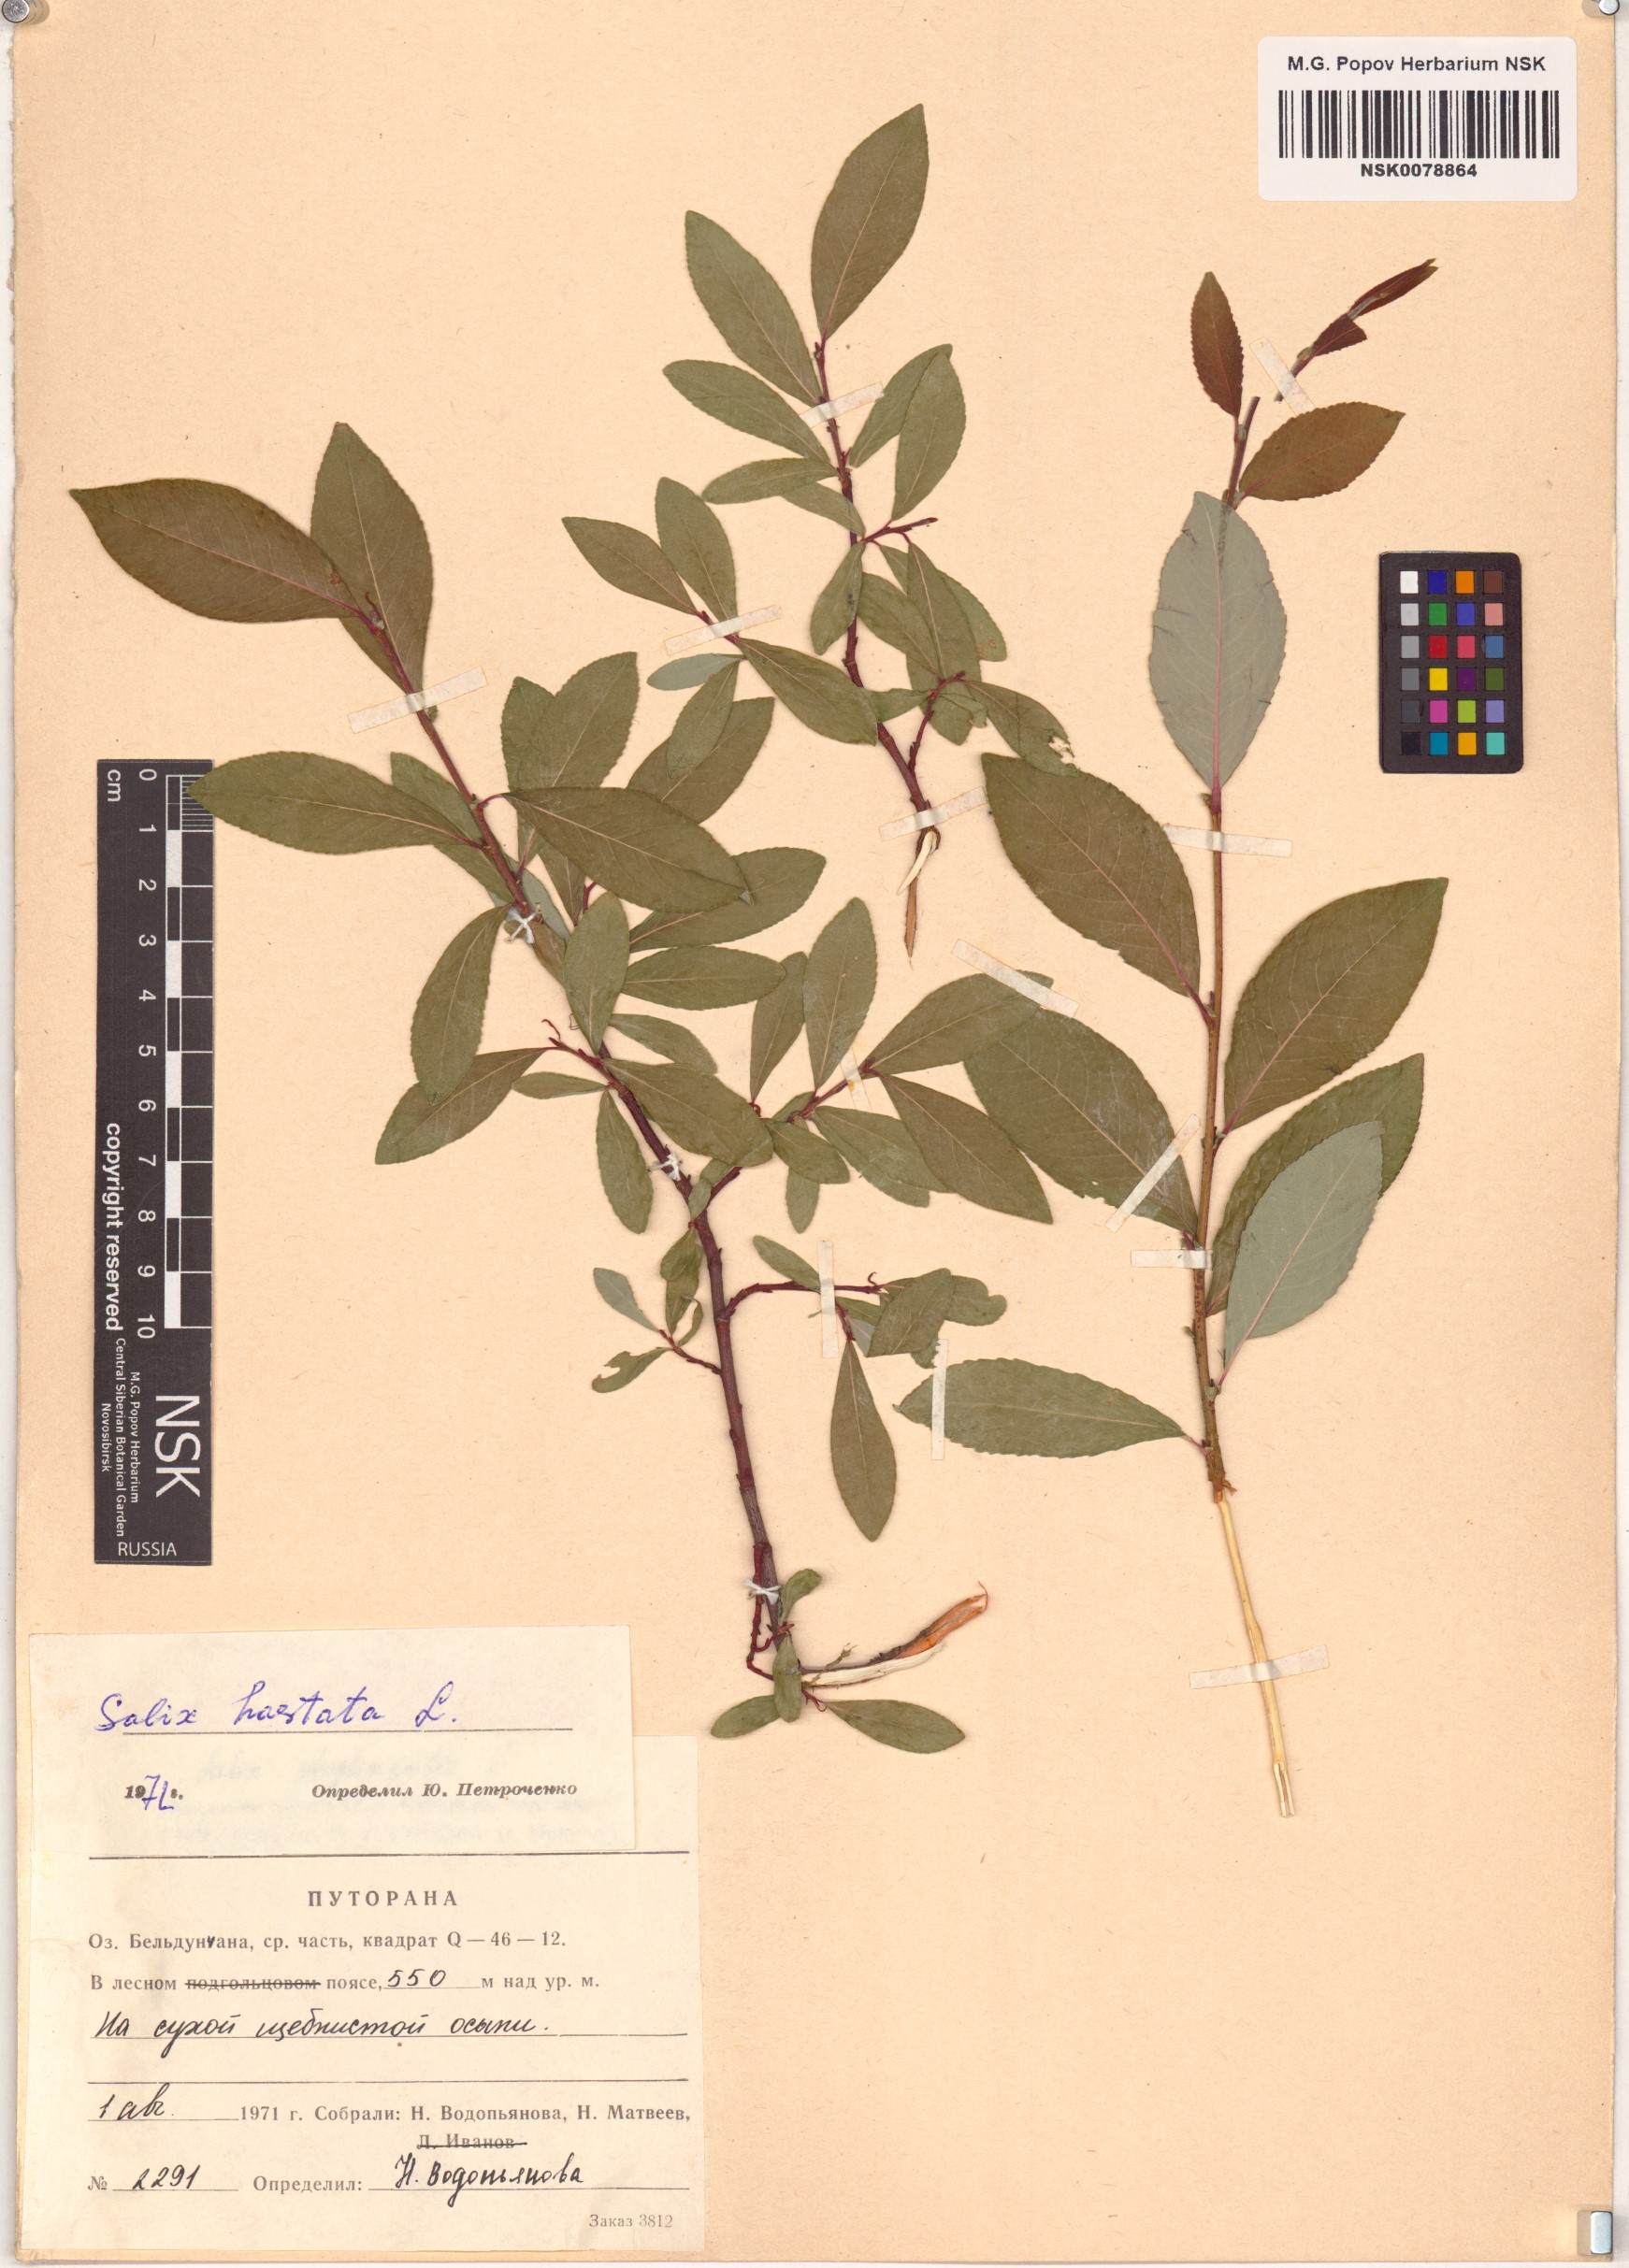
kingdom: Plantae
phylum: Tracheophyta
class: Magnoliopsida
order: Malpighiales
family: Salicaceae
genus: Salix
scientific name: Salix hastata
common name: Halberd willow
